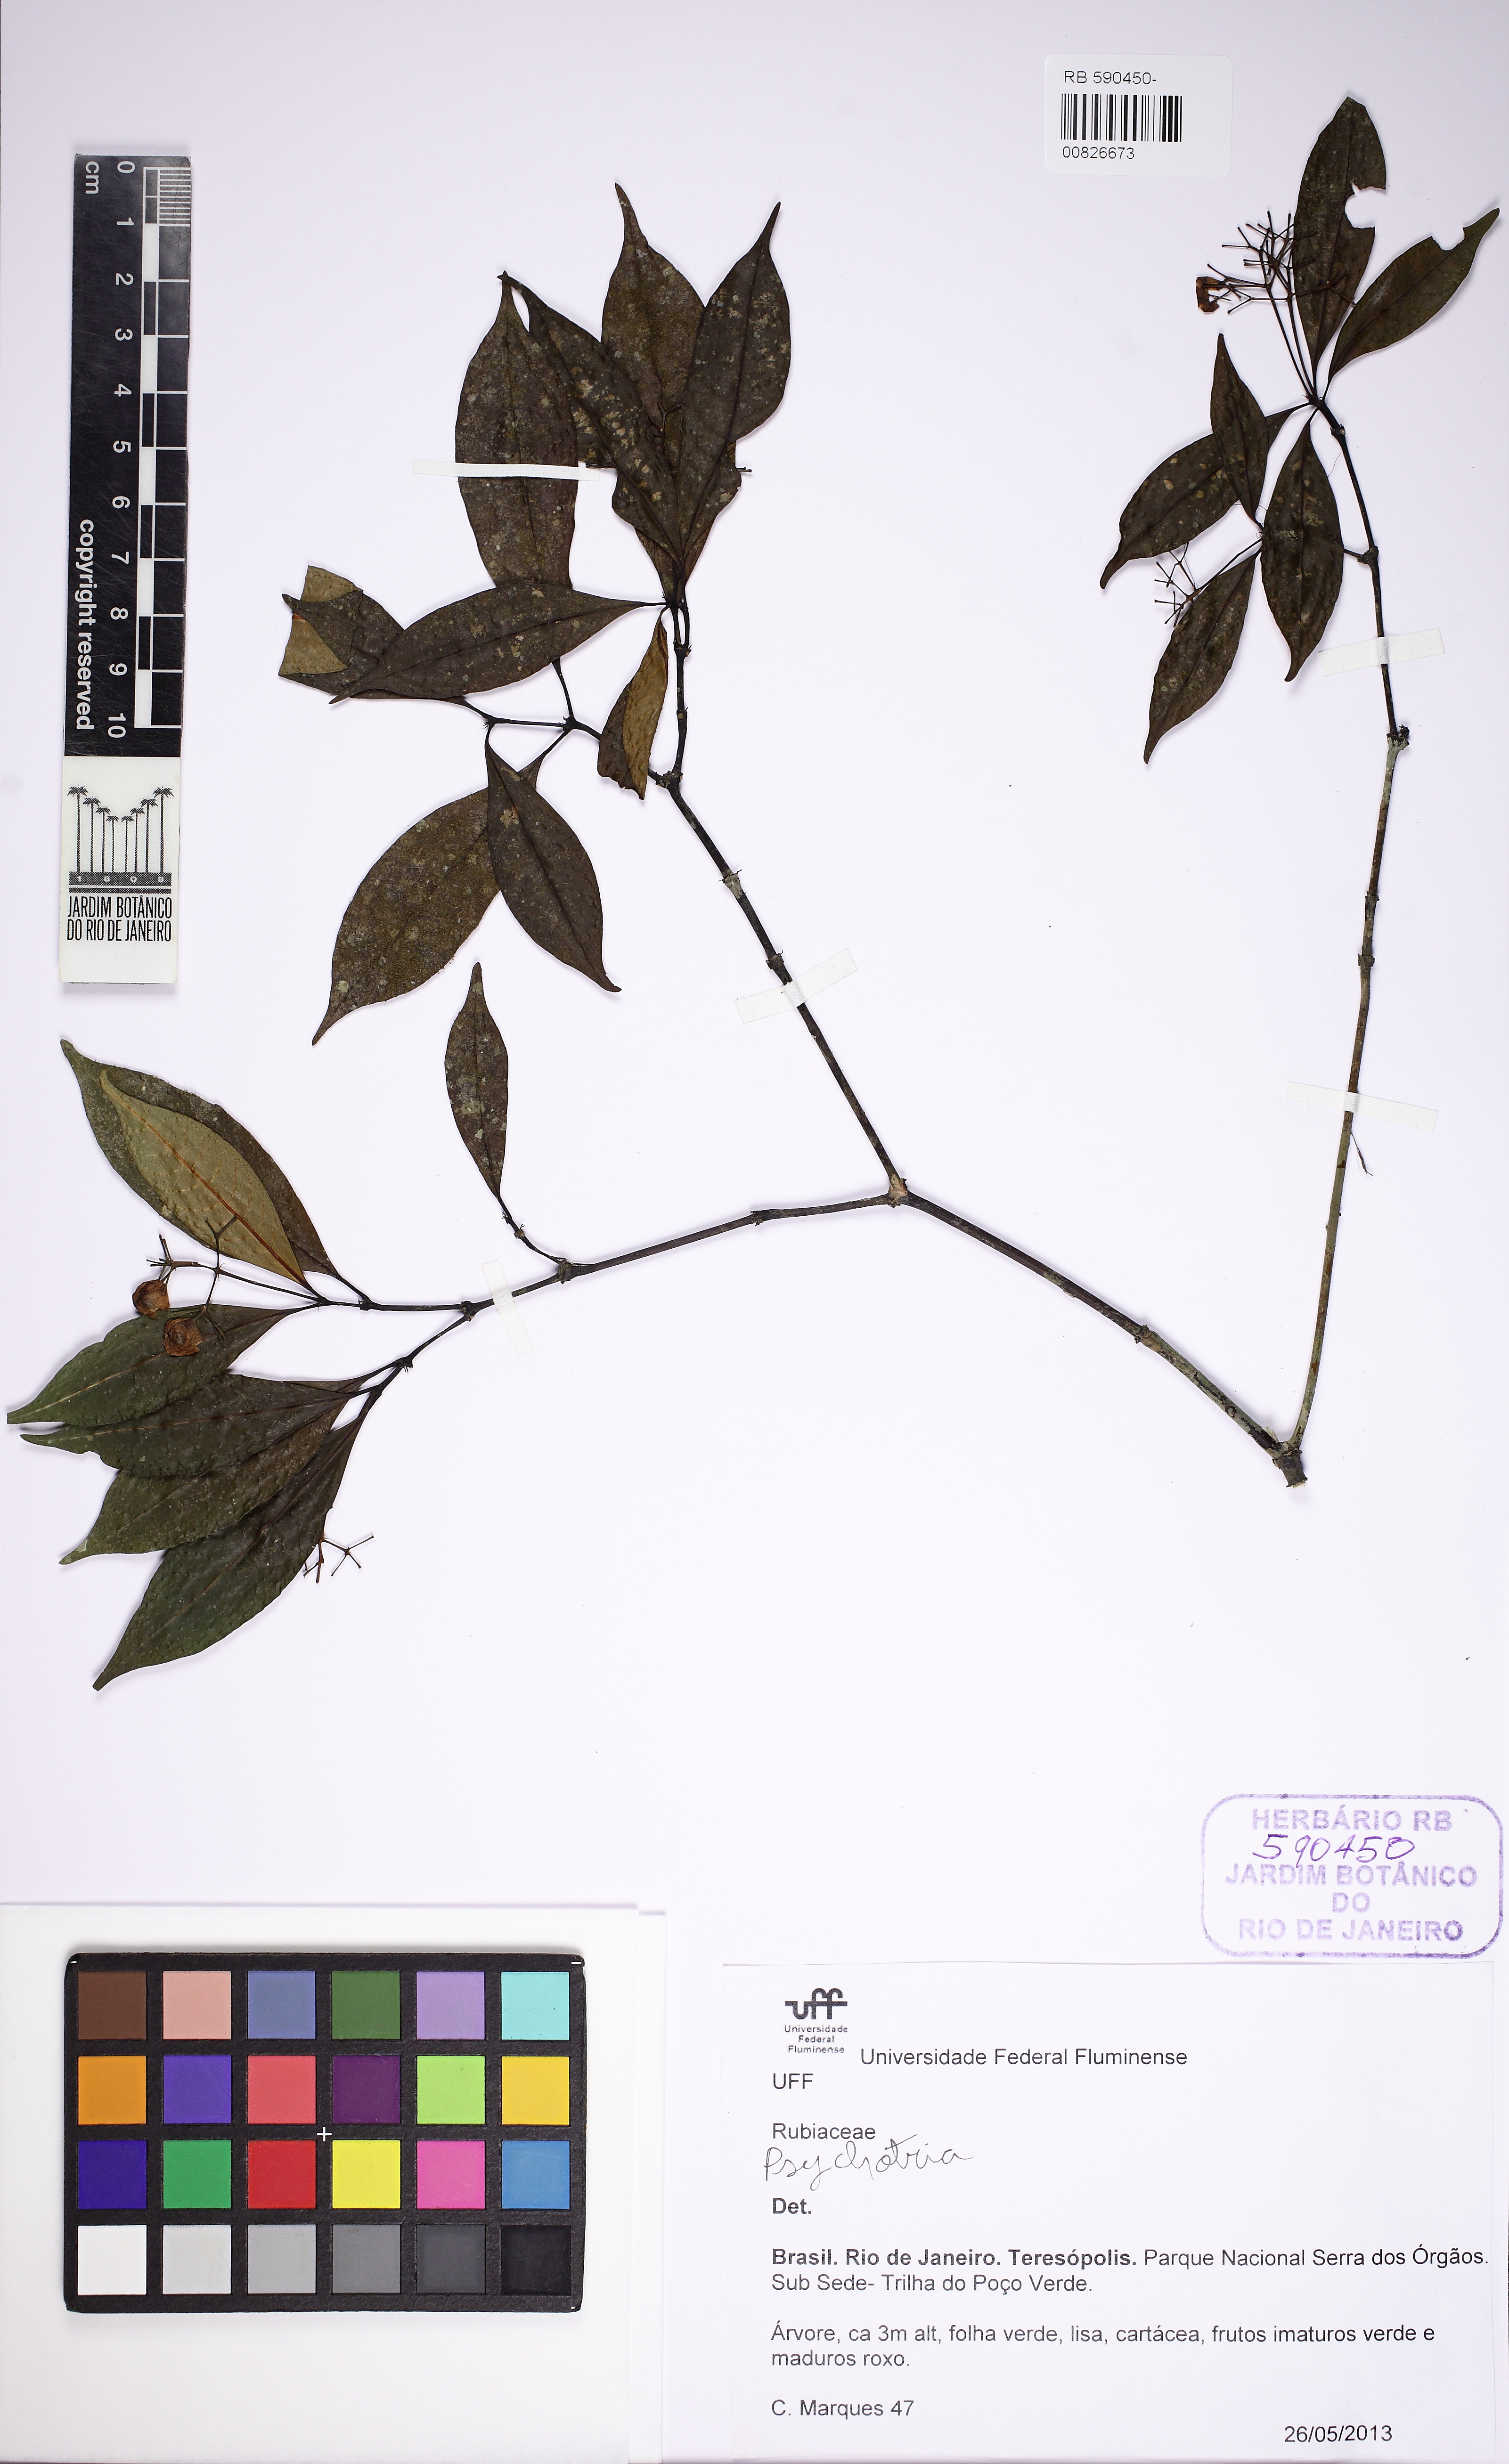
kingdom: Plantae
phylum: Tracheophyta
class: Magnoliopsida
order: Gentianales
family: Rubiaceae
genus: Psychotria
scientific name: Psychotria leiocarpa
